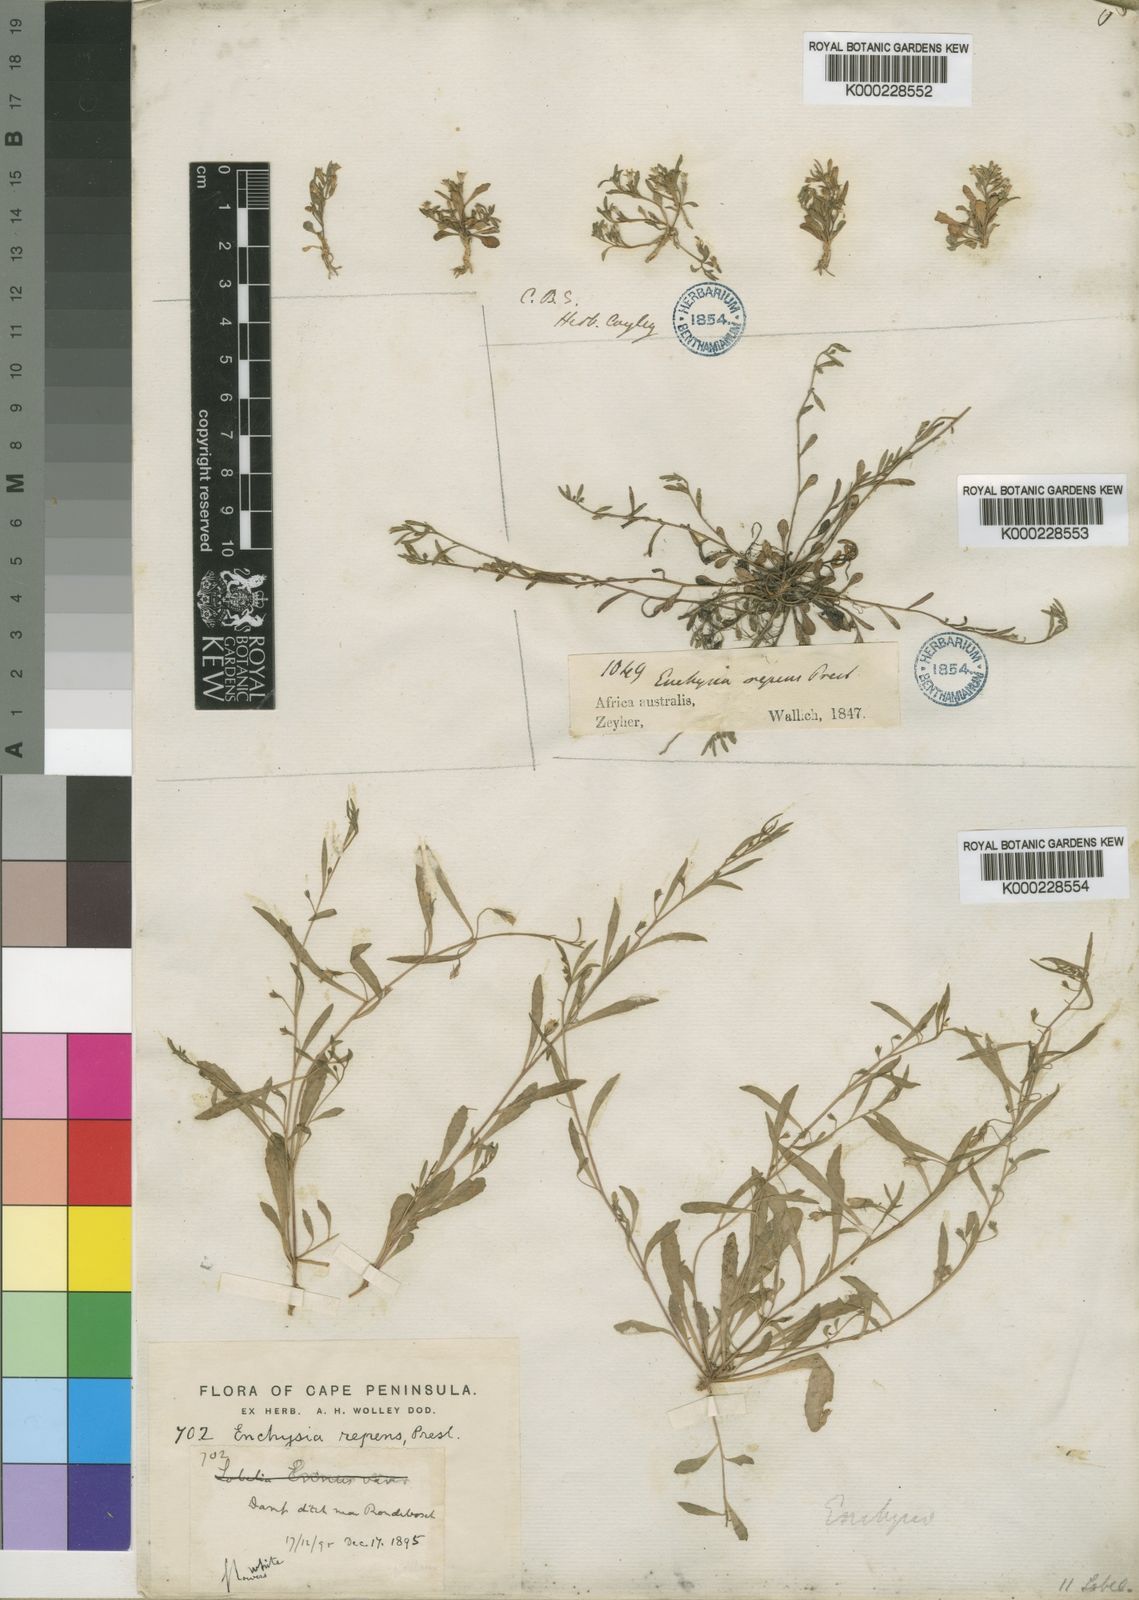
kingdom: Plantae
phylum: Tracheophyta
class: Magnoliopsida
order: Asterales
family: Campanulaceae
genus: Wimmerella
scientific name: Wimmerella
